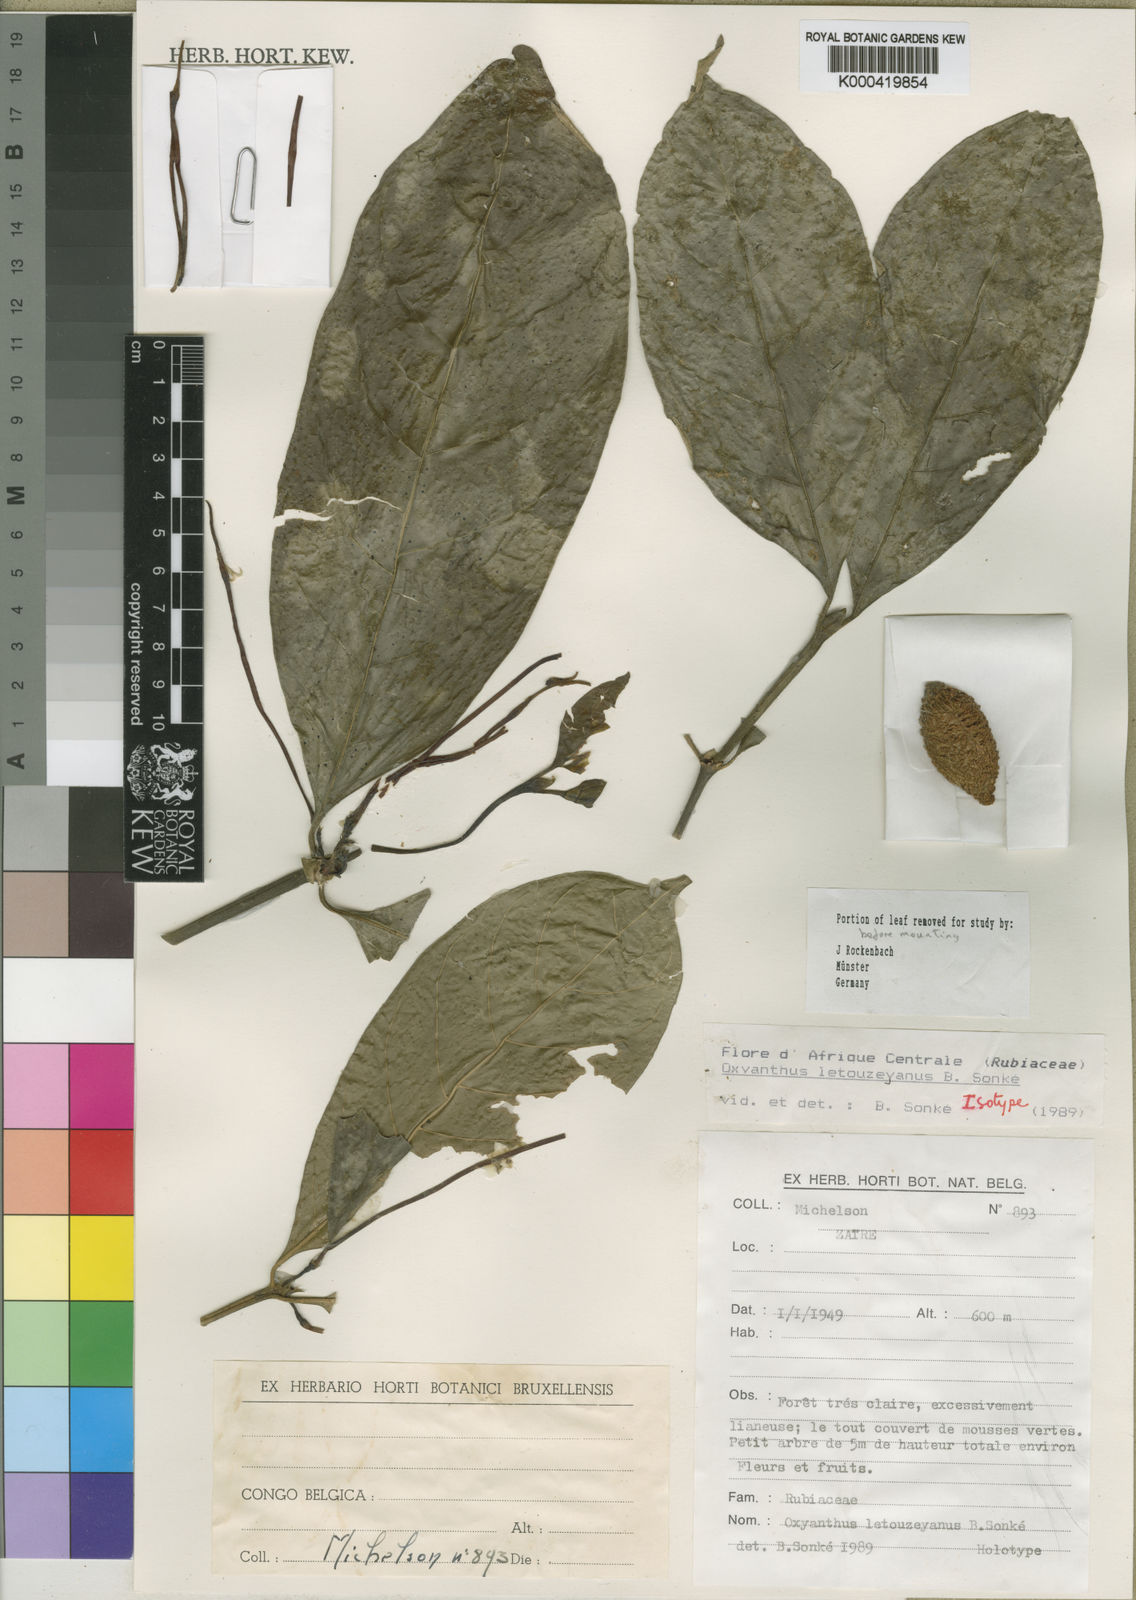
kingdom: Plantae
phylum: Tracheophyta
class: Magnoliopsida
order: Gentianales
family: Rubiaceae
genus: Oxyanthus
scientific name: Oxyanthus
